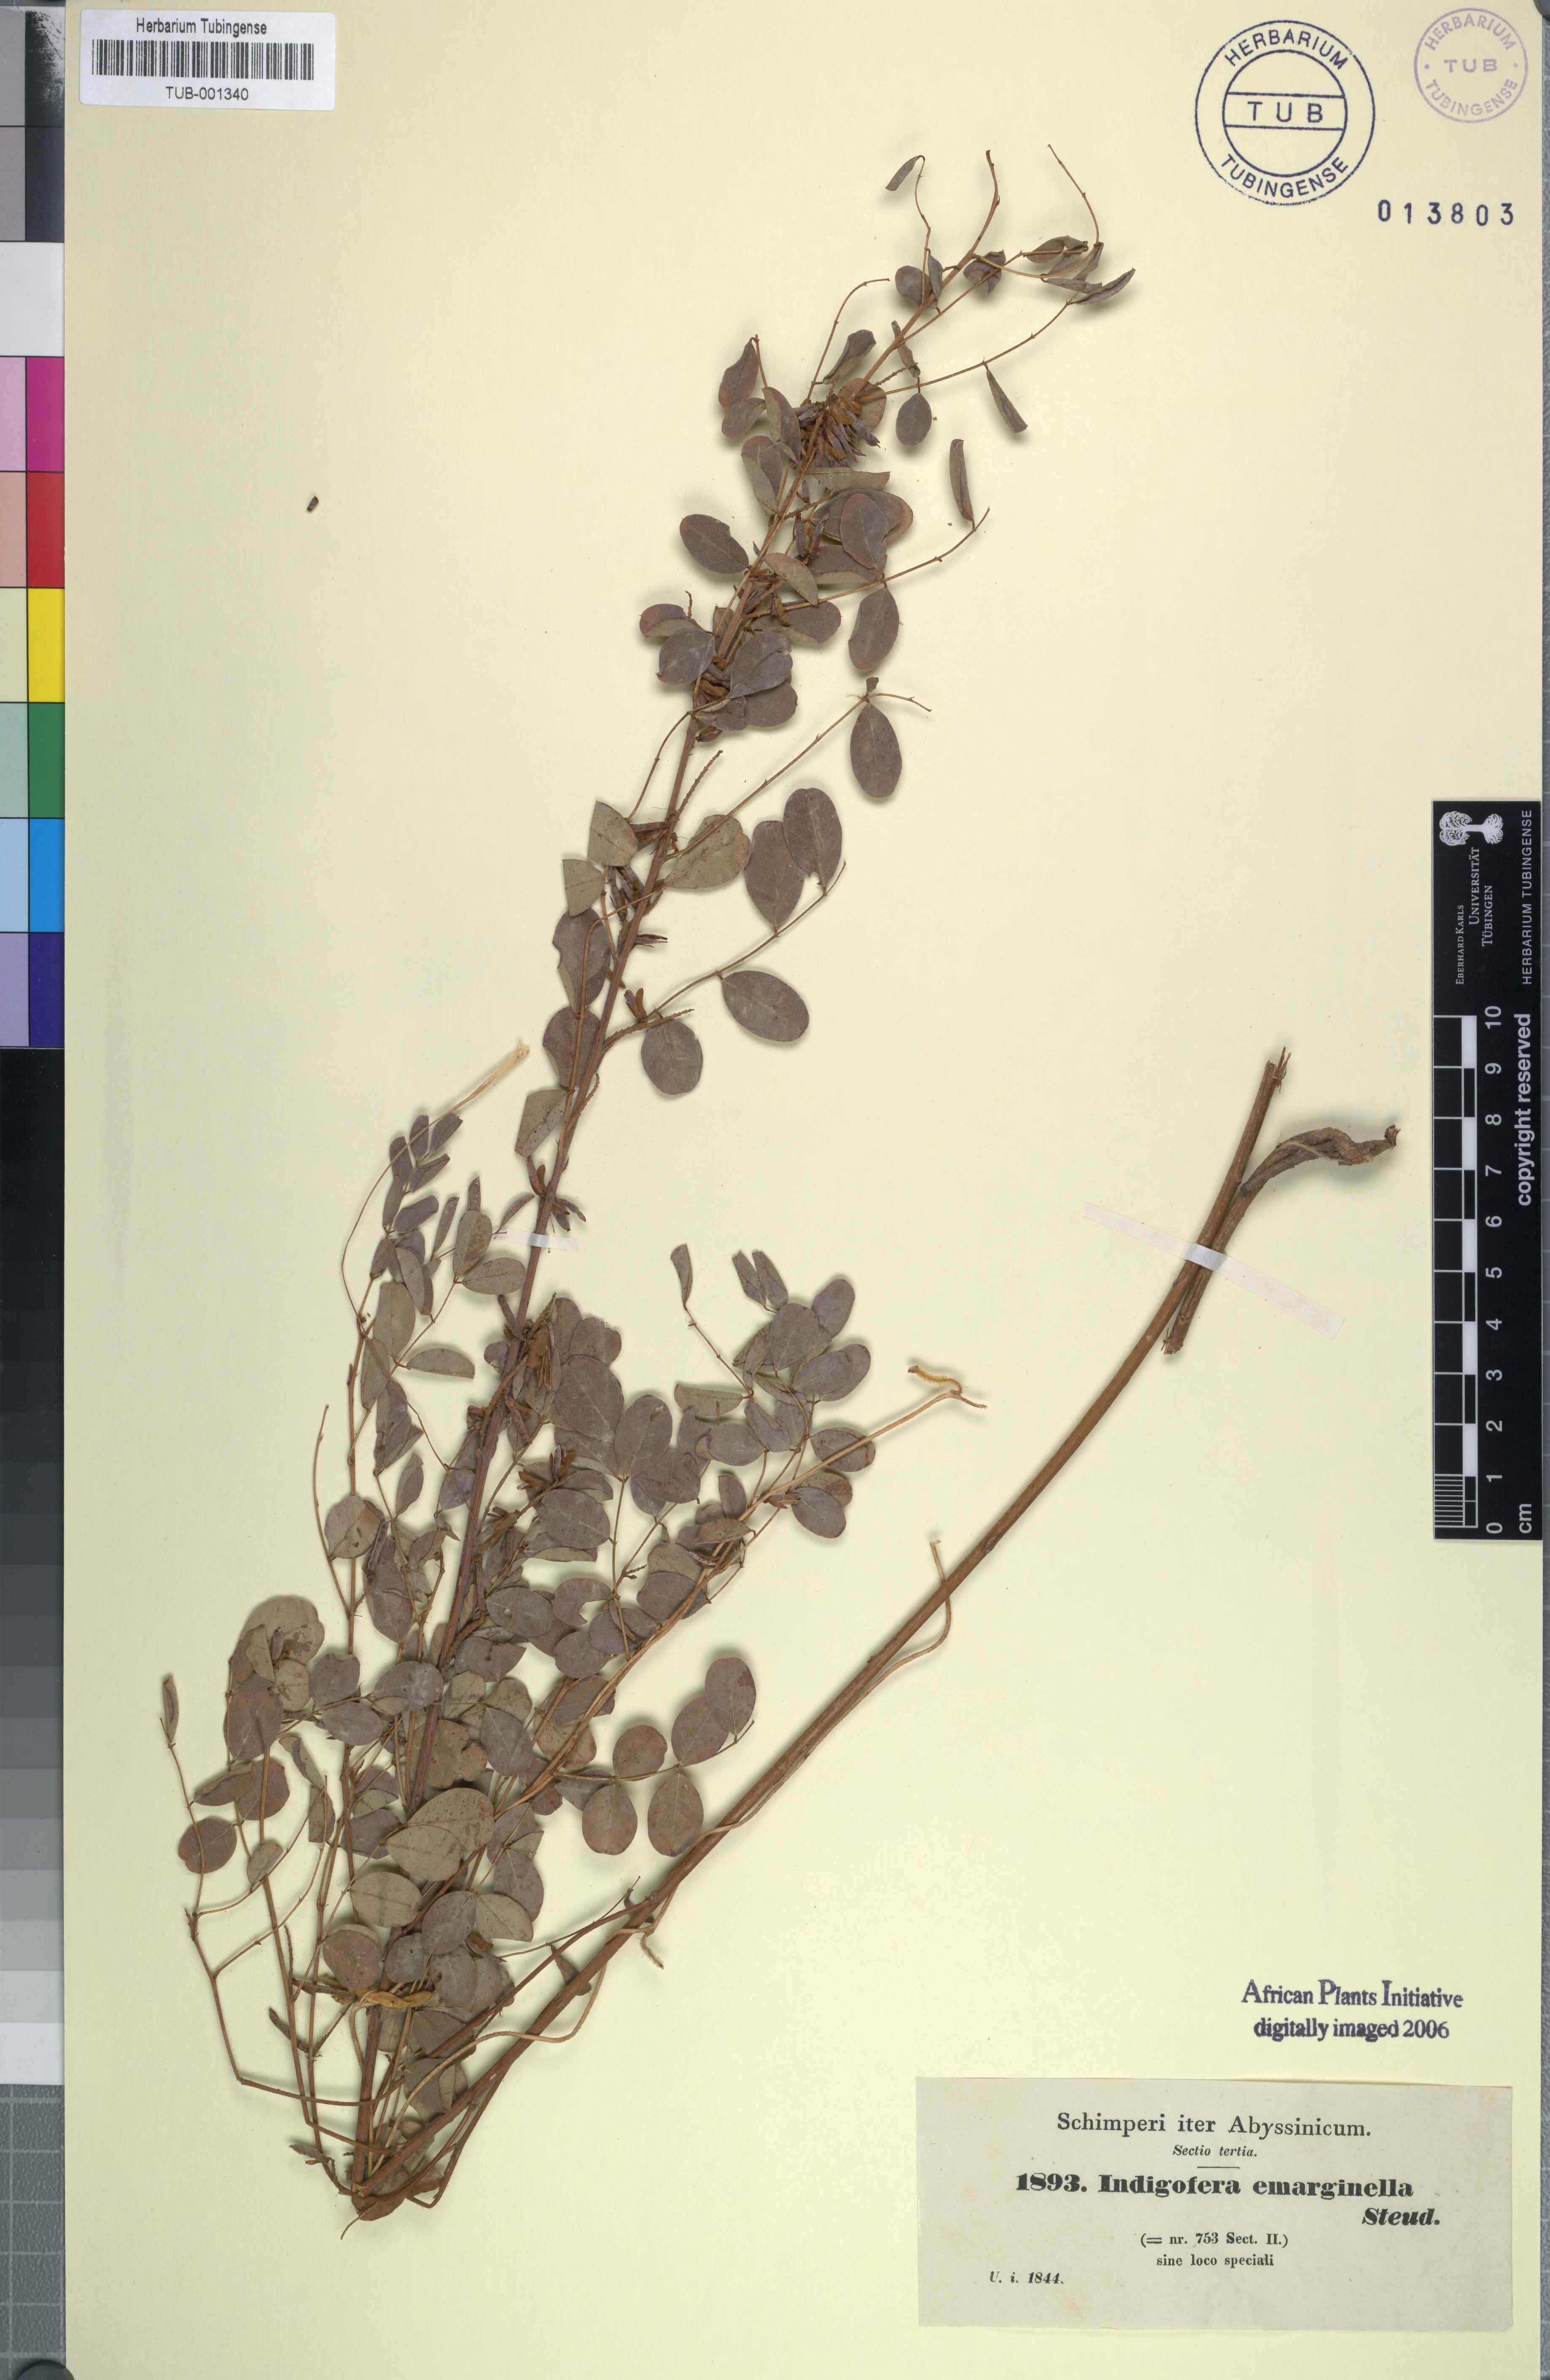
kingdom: Plantae
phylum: Tracheophyta
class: Magnoliopsida
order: Fabales
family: Fabaceae
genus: Indigofera
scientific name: Indigofera emarginella
